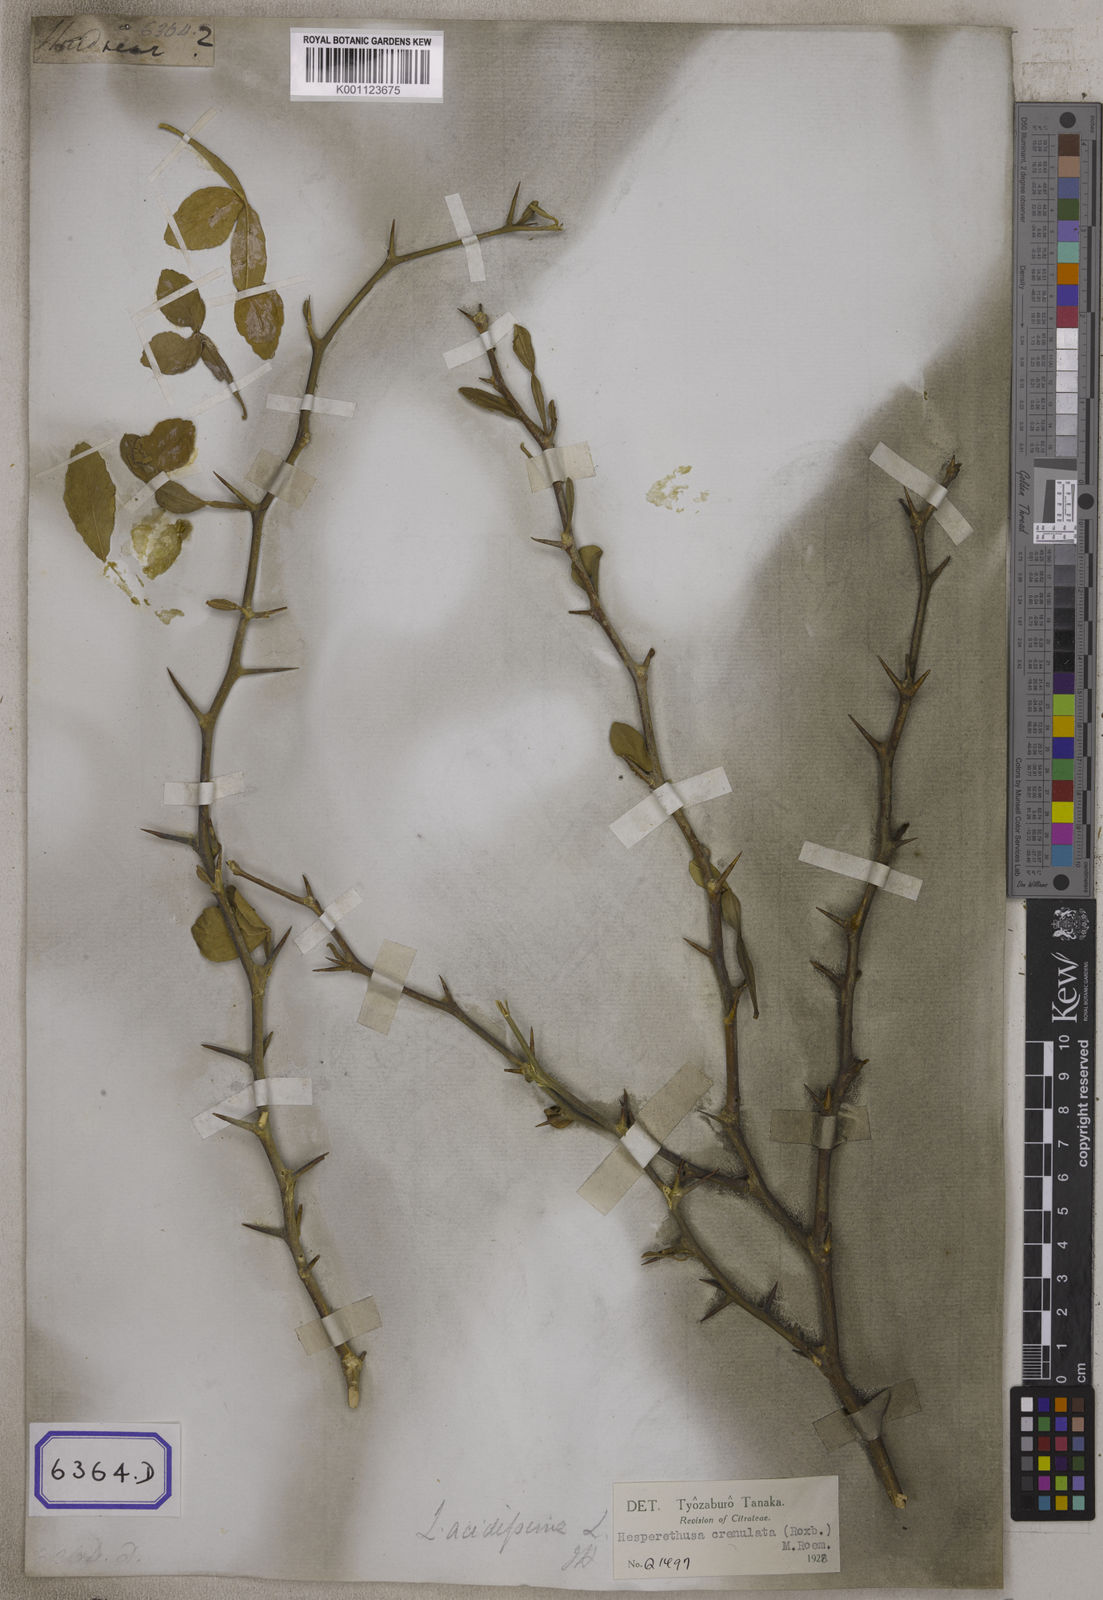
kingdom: Plantae
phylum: Tracheophyta
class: Magnoliopsida
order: Sapindales
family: Rutaceae
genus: Naringi
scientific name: Naringi crenulata
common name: Hesperethusa
